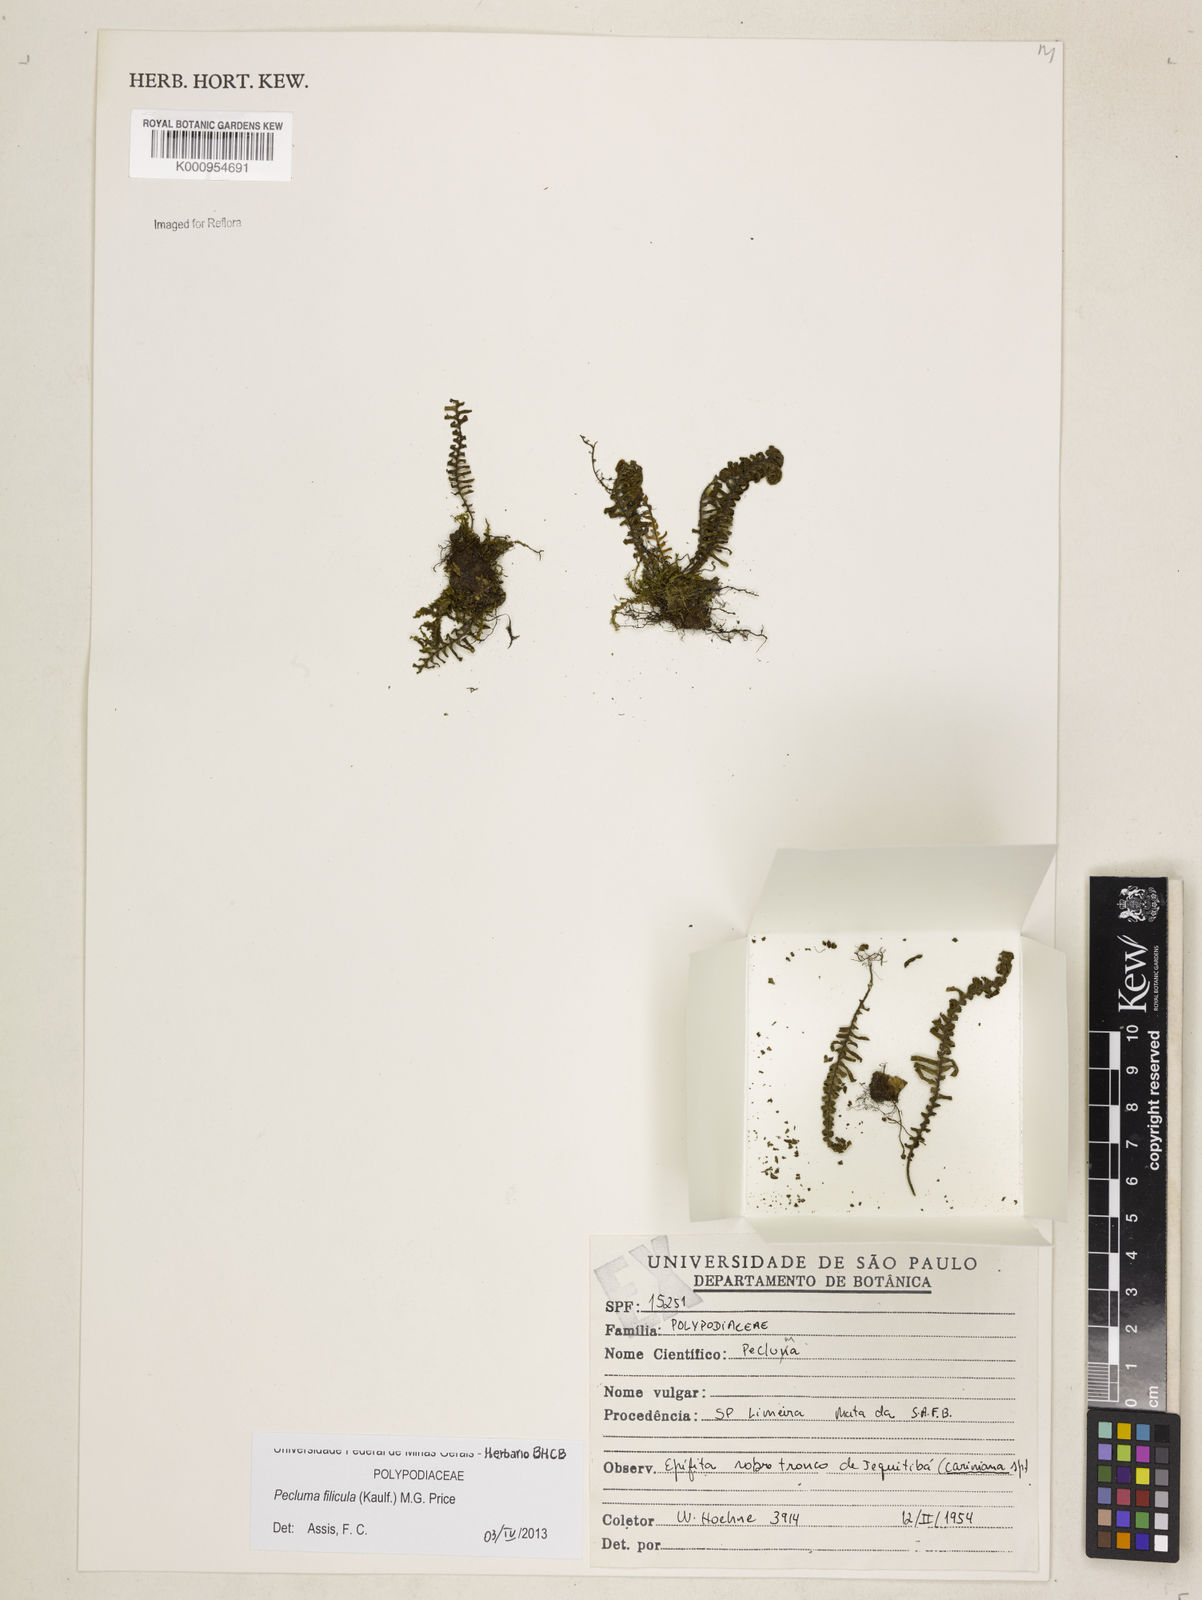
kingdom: Plantae
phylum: Tracheophyta
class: Polypodiopsida
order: Polypodiales
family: Polypodiaceae
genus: Pecluma
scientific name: Pecluma filicula
